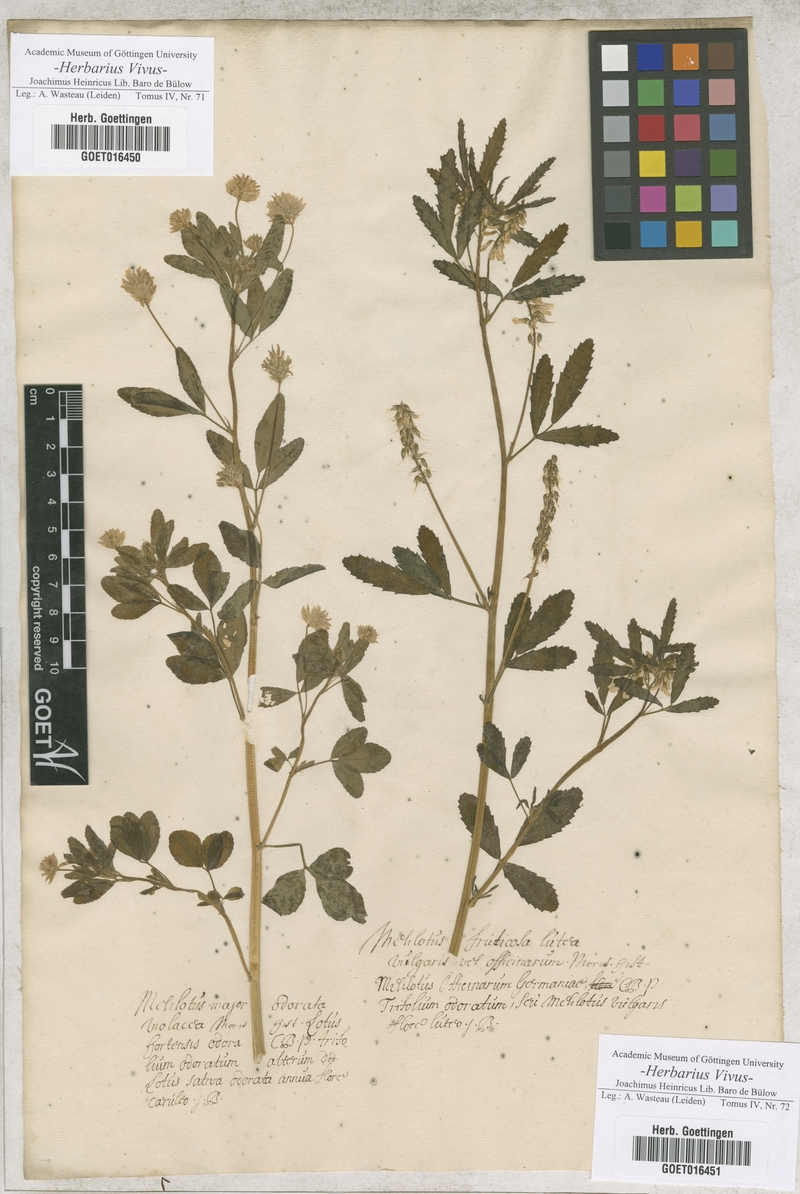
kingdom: Plantae
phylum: Tracheophyta
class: Magnoliopsida
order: Fabales
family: Fabaceae
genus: Trigonella
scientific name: Trigonella caerulea
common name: Blue fenugreek
